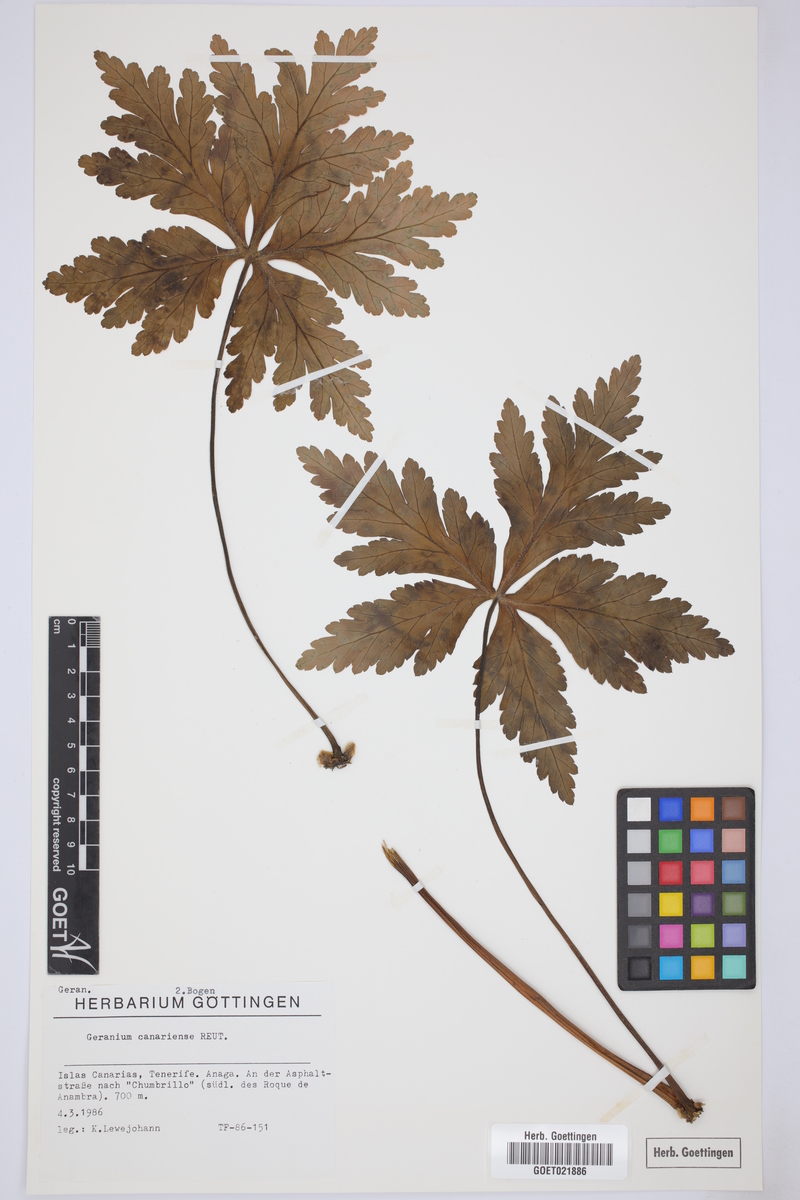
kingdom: Plantae
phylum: Tracheophyta
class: Magnoliopsida
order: Geraniales
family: Geraniaceae
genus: Geranium
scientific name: Geranium reuteri
